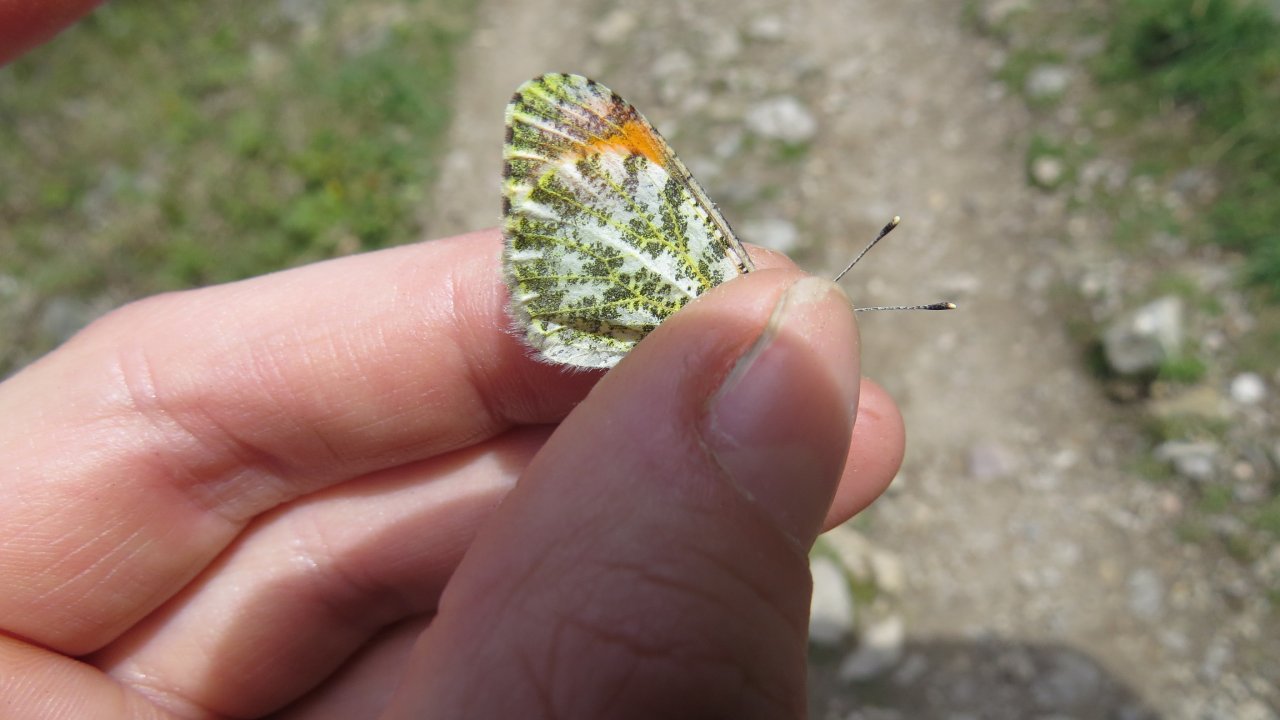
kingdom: Animalia
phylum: Arthropoda
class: Insecta
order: Lepidoptera
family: Pieridae
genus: Anthocharis
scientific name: Anthocharis sara
